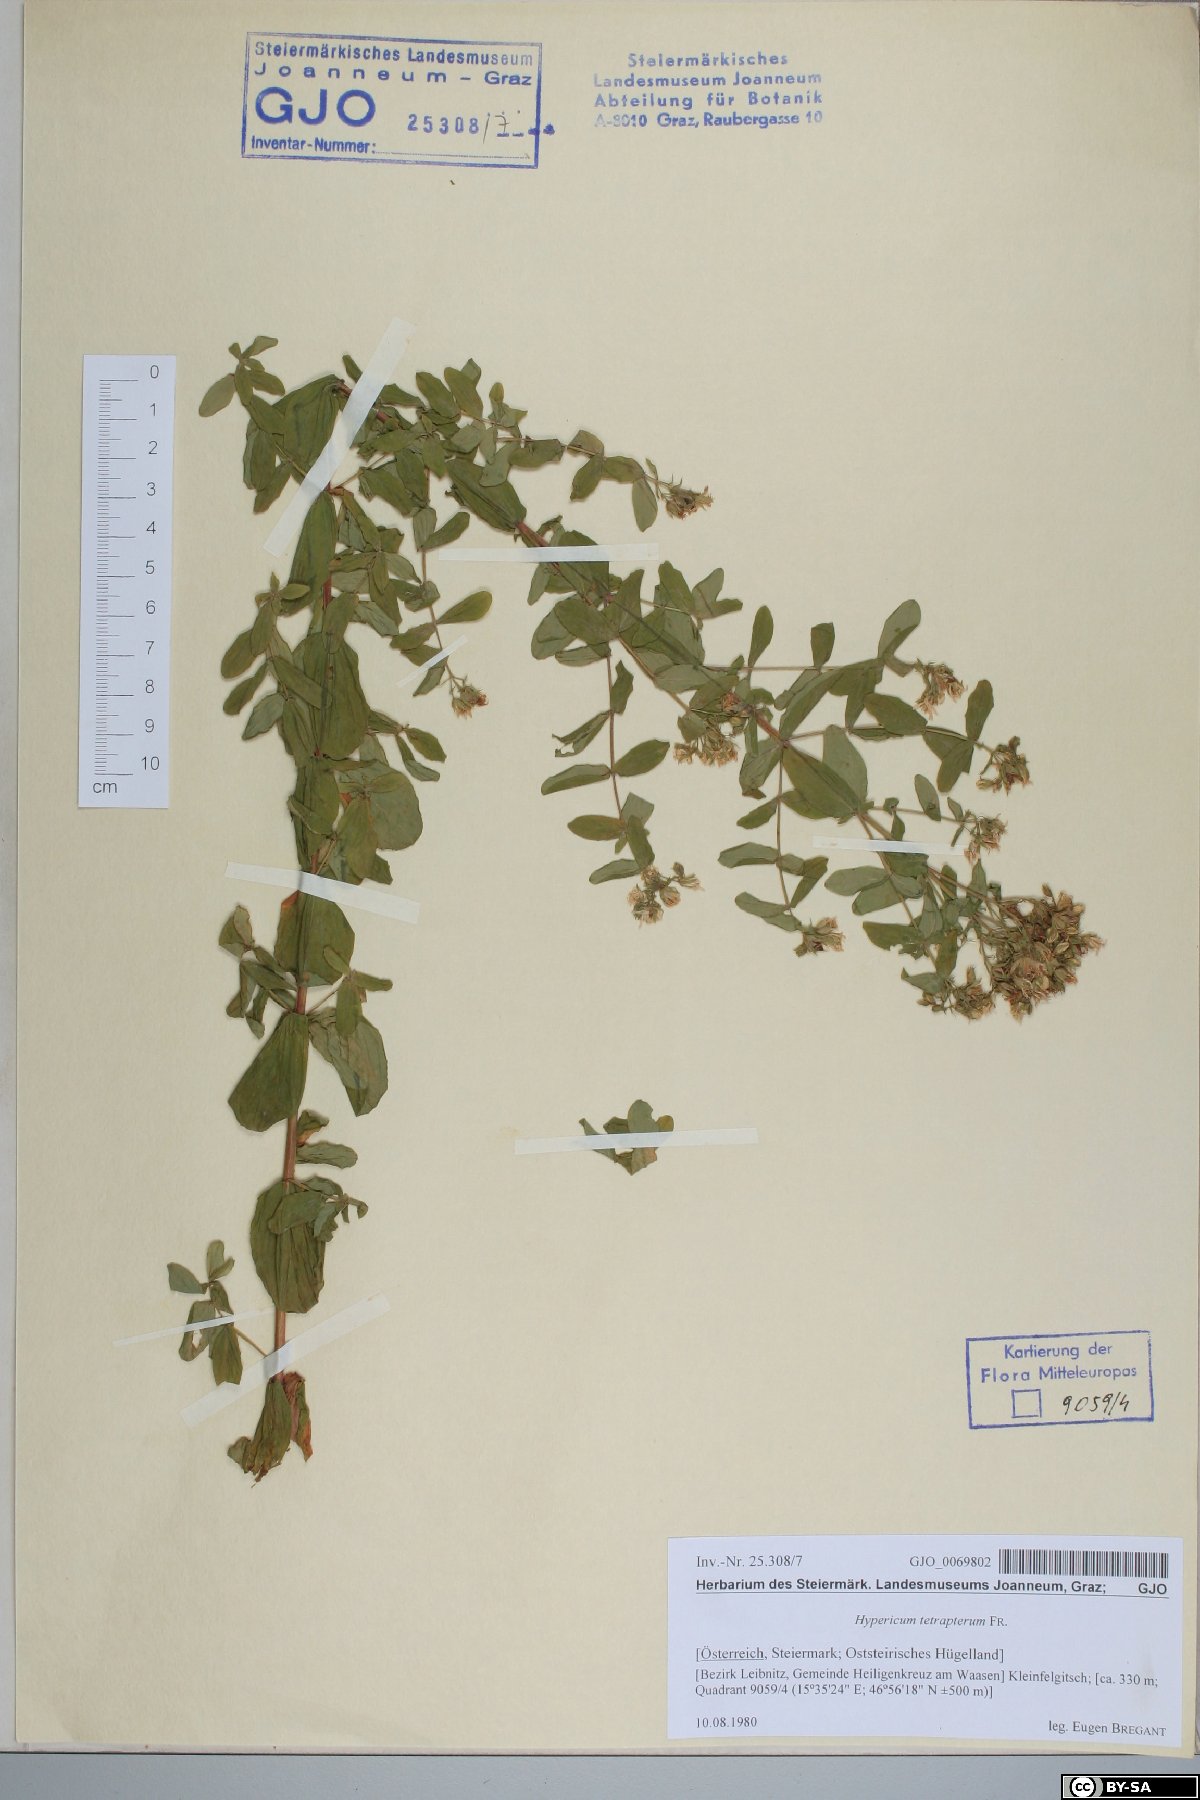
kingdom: Plantae
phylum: Tracheophyta
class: Magnoliopsida
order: Malpighiales
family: Hypericaceae
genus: Hypericum
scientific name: Hypericum tetrapterum
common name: Square-stalked st. john's-wort
